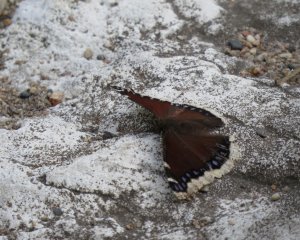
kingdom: Animalia
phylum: Arthropoda
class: Insecta
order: Lepidoptera
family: Nymphalidae
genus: Nymphalis
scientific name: Nymphalis antiopa
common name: Mourning Cloak
